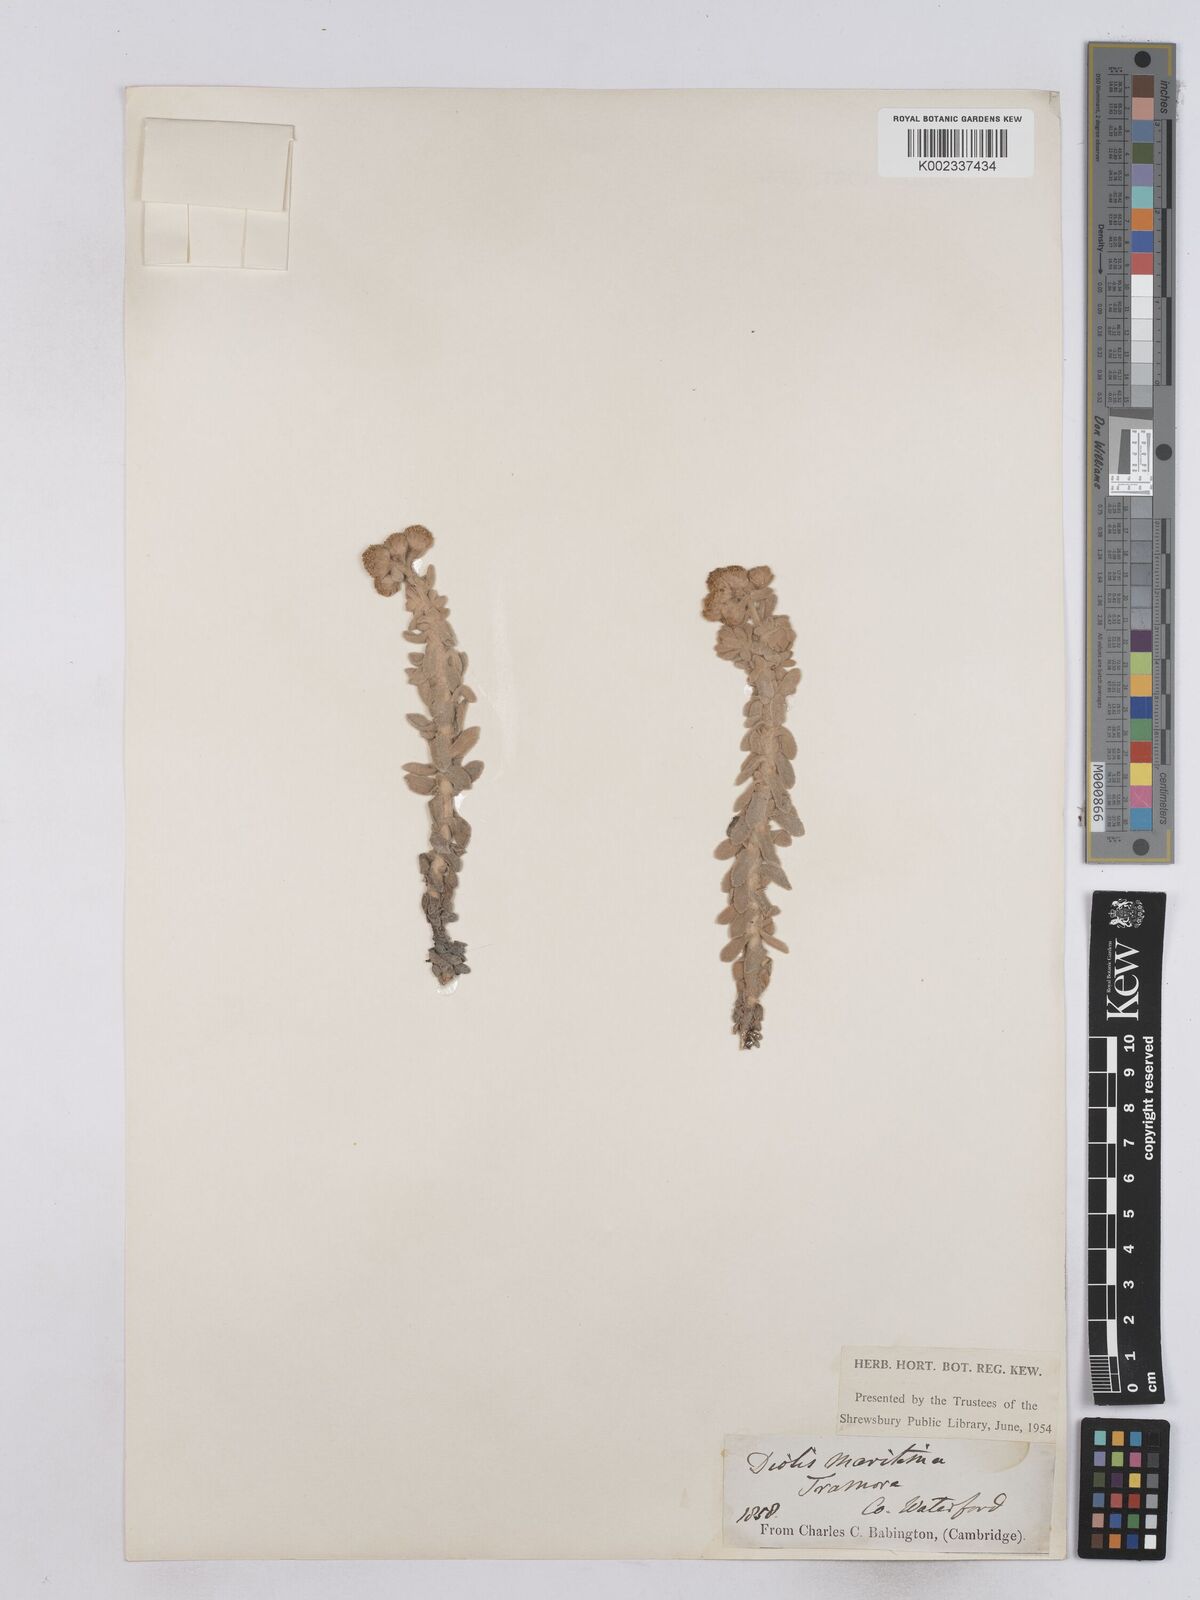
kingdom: Plantae
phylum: Tracheophyta
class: Magnoliopsida
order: Asterales
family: Asteraceae
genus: Achillea
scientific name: Achillea maritima
